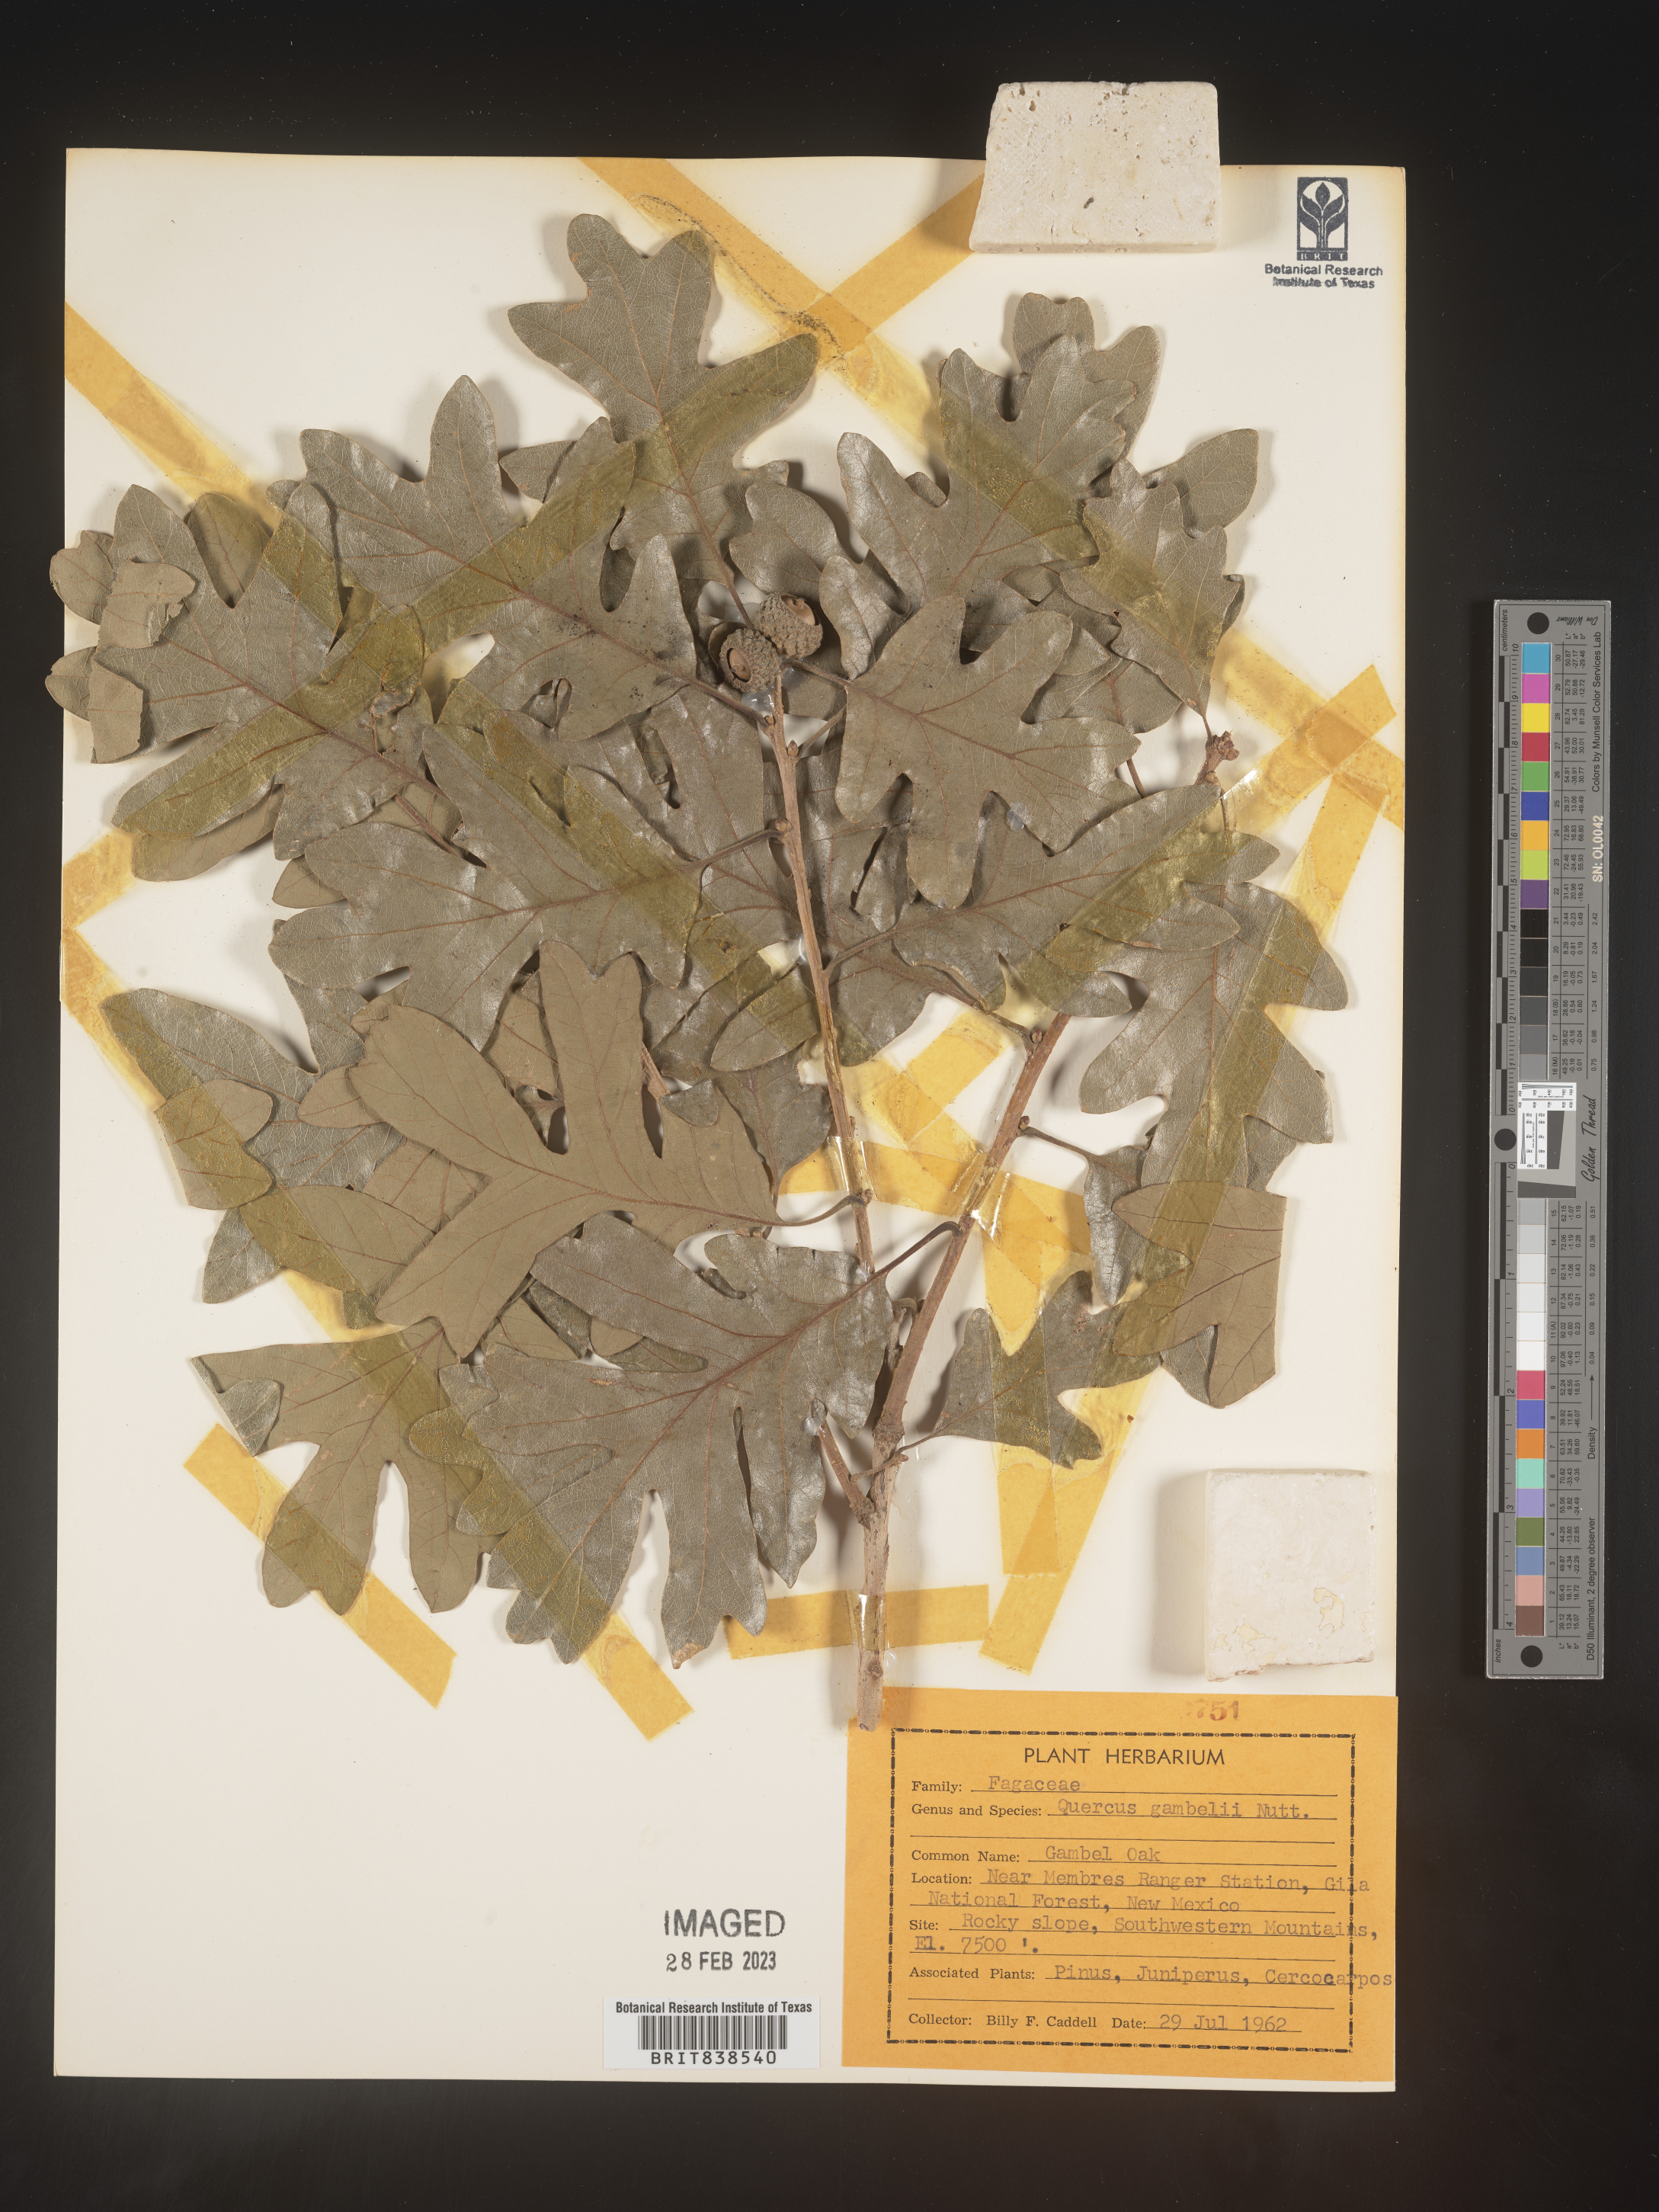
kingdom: Plantae
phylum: Tracheophyta
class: Magnoliopsida
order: Fagales
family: Fagaceae
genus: Quercus
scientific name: Quercus gambelii
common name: Gambel oak
